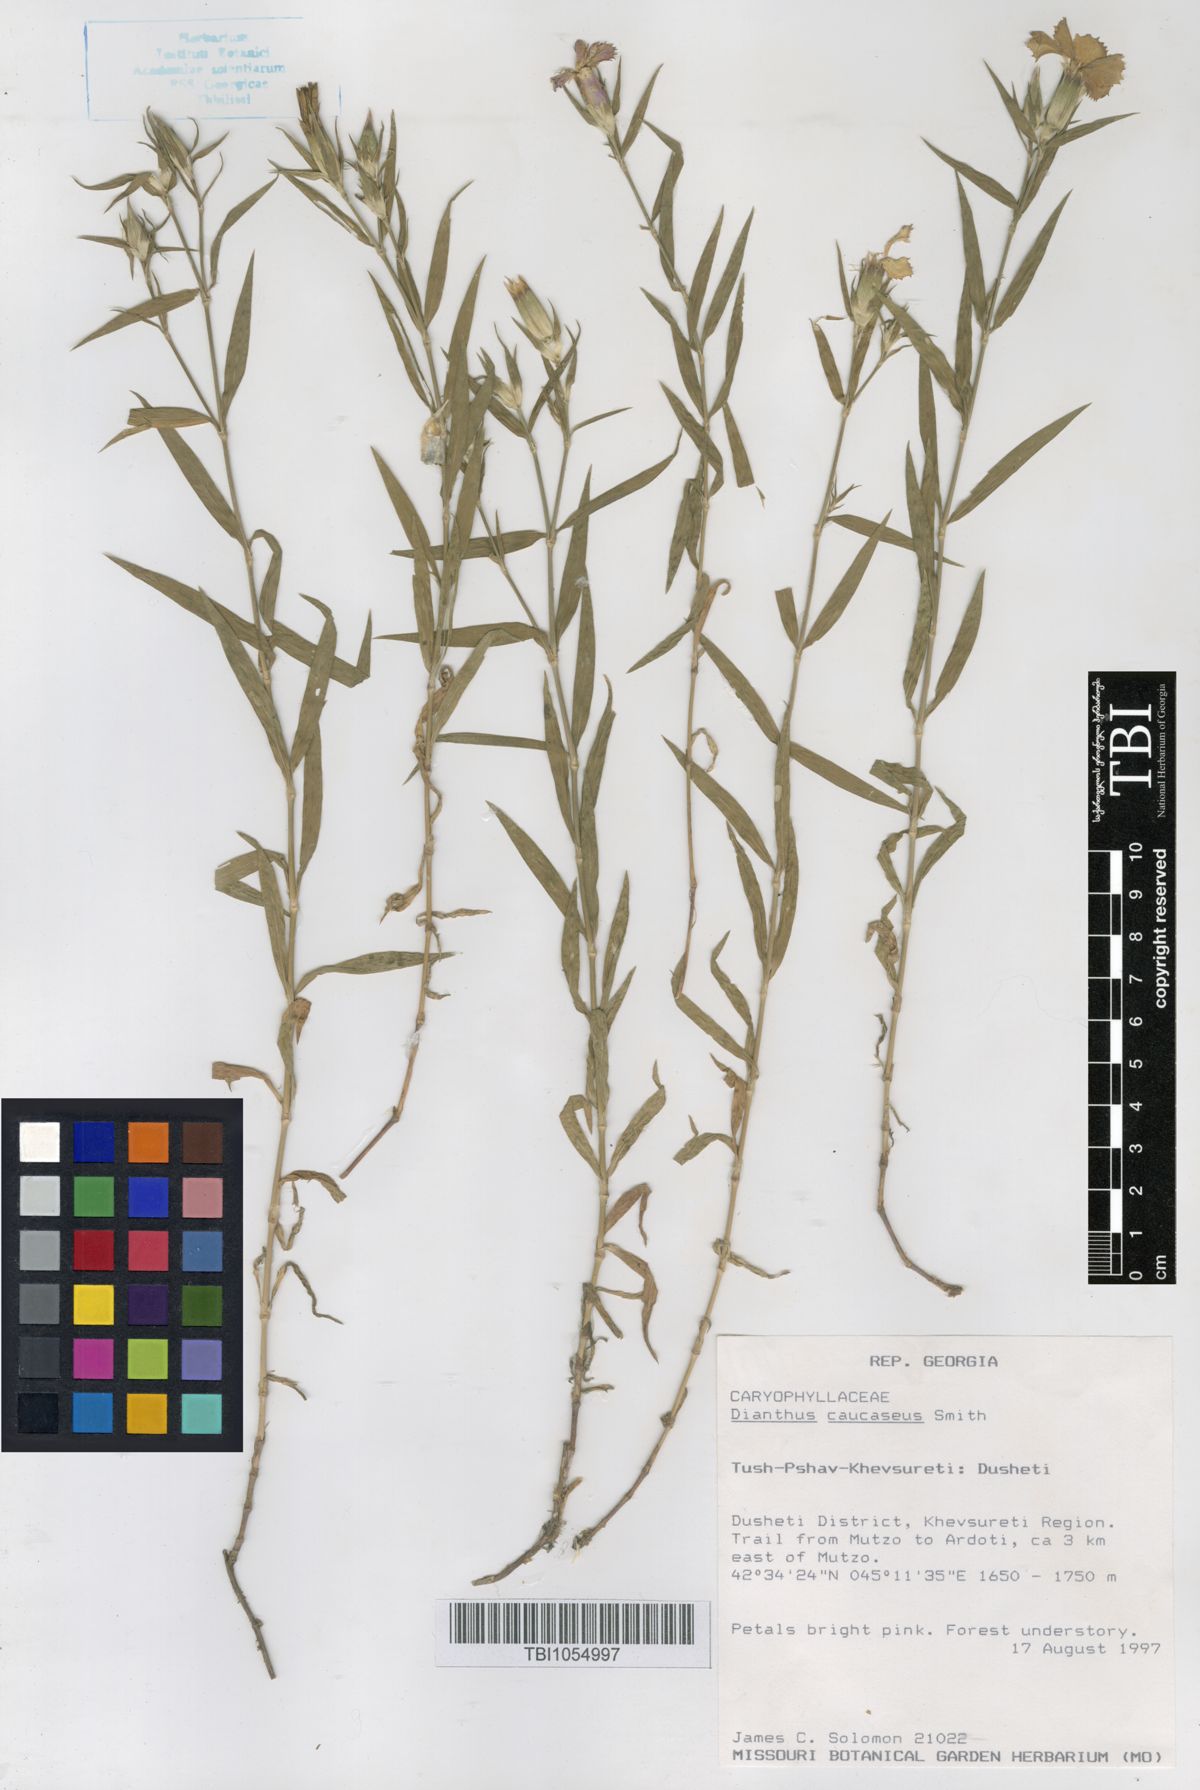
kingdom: Plantae
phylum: Tracheophyta
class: Magnoliopsida
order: Caryophyllales
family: Caryophyllaceae
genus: Dianthus
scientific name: Dianthus caucaseus
